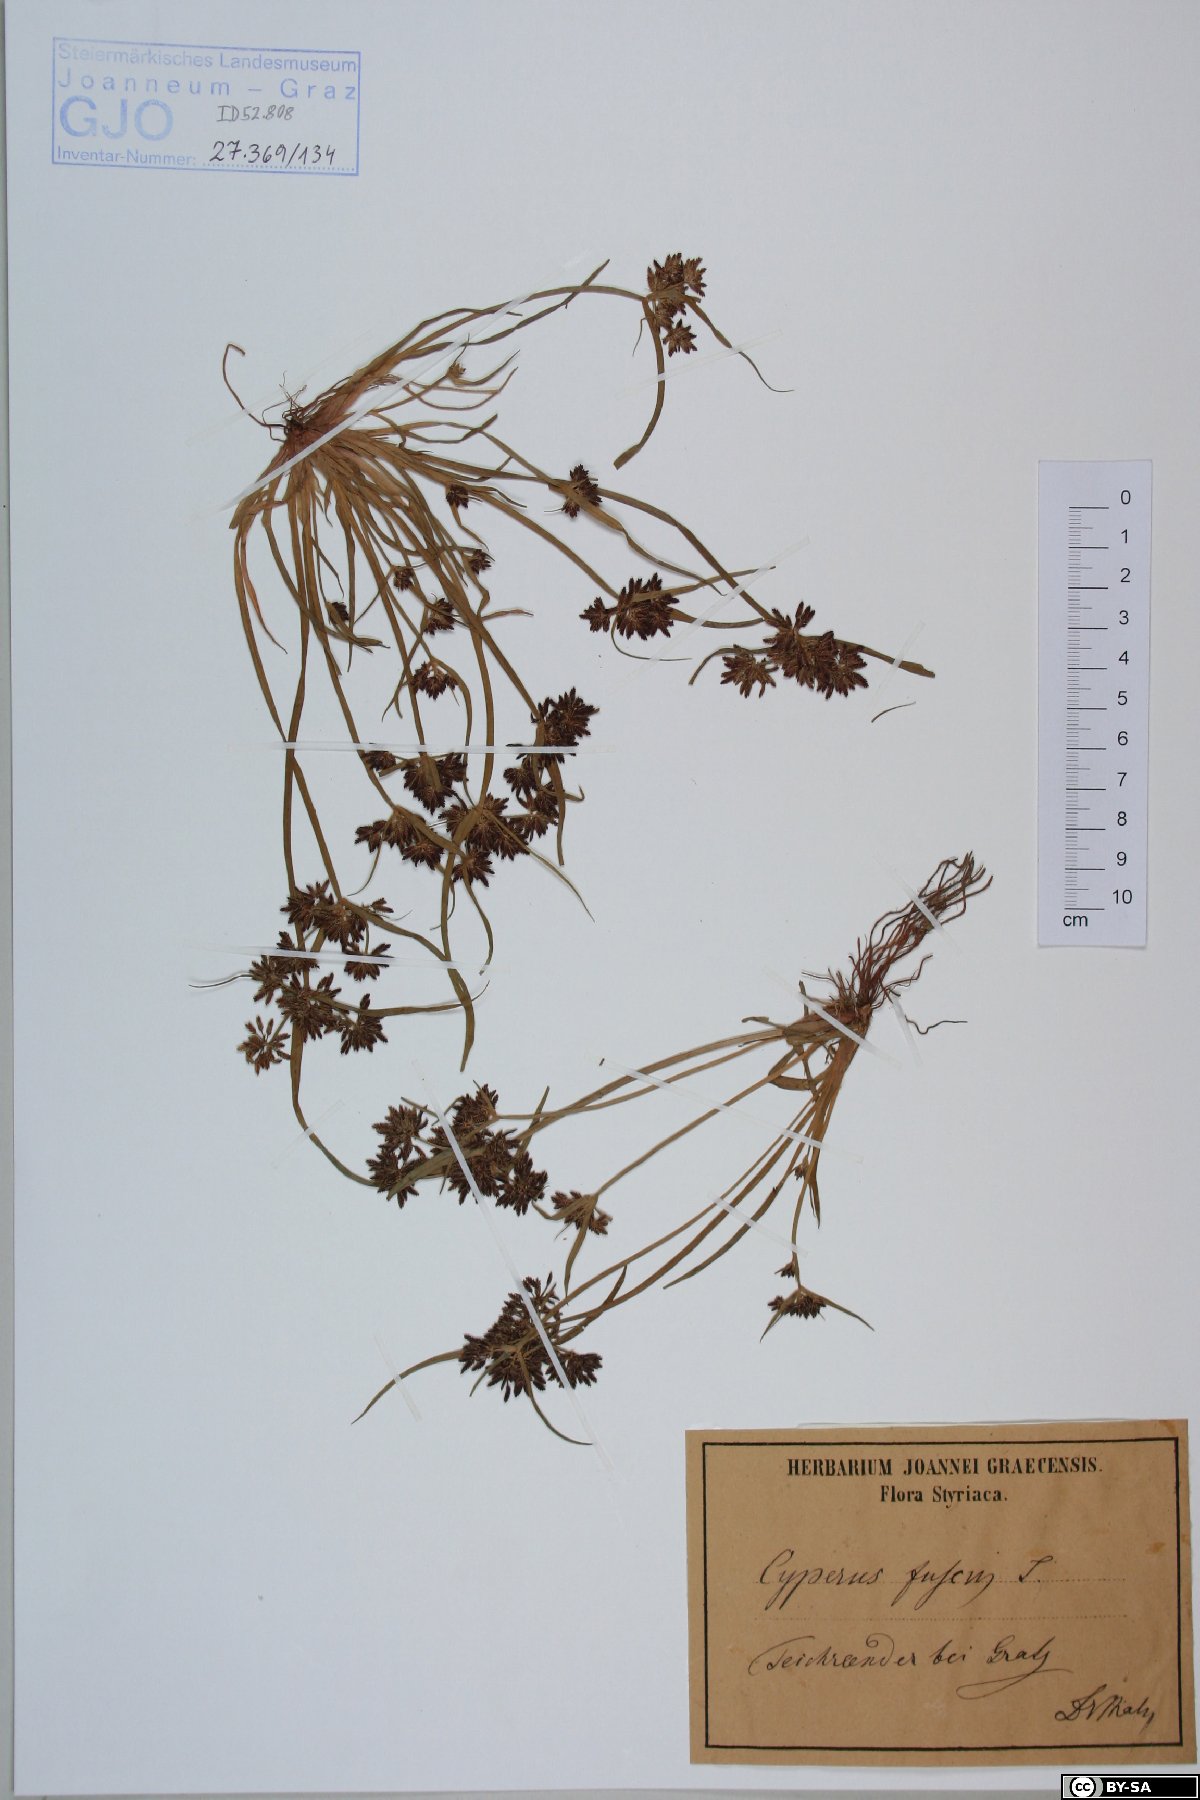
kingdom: Plantae
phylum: Tracheophyta
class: Liliopsida
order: Poales
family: Cyperaceae
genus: Cyperus
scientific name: Cyperus fuscus
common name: Brown galingale
